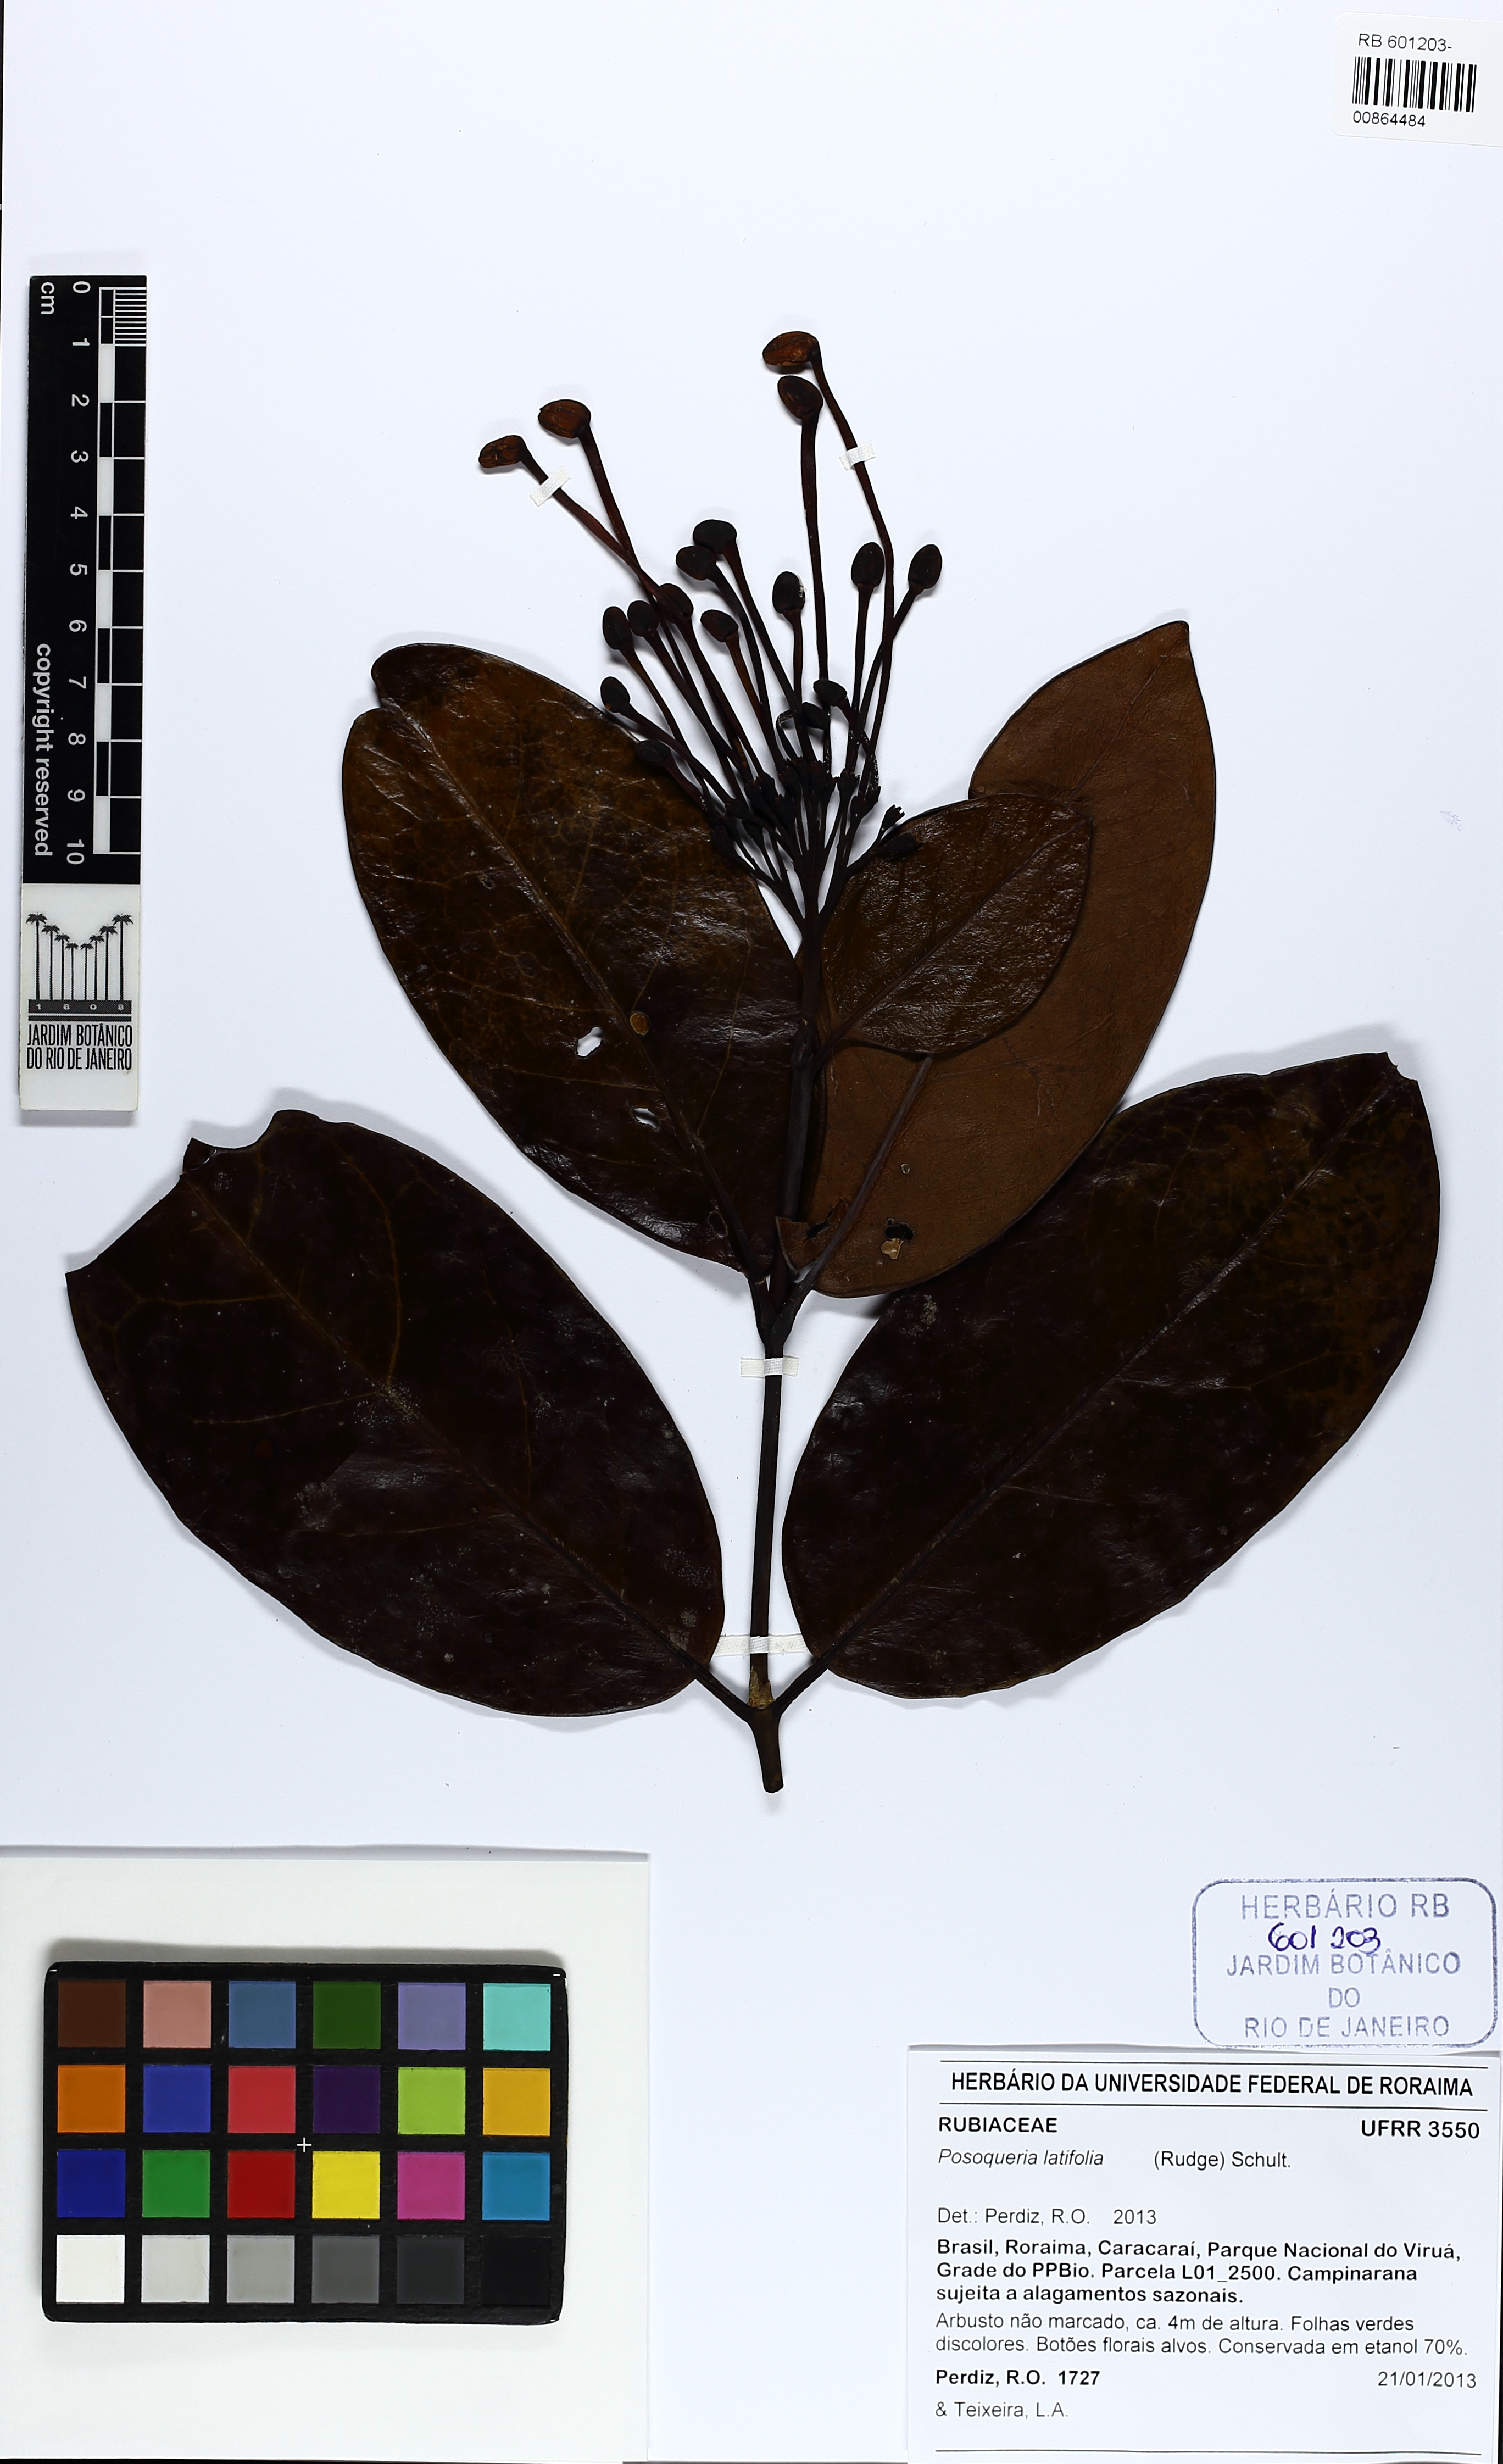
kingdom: Plantae
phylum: Tracheophyta
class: Magnoliopsida
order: Gentianales
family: Rubiaceae
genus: Posoqueria
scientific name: Posoqueria latifolia
